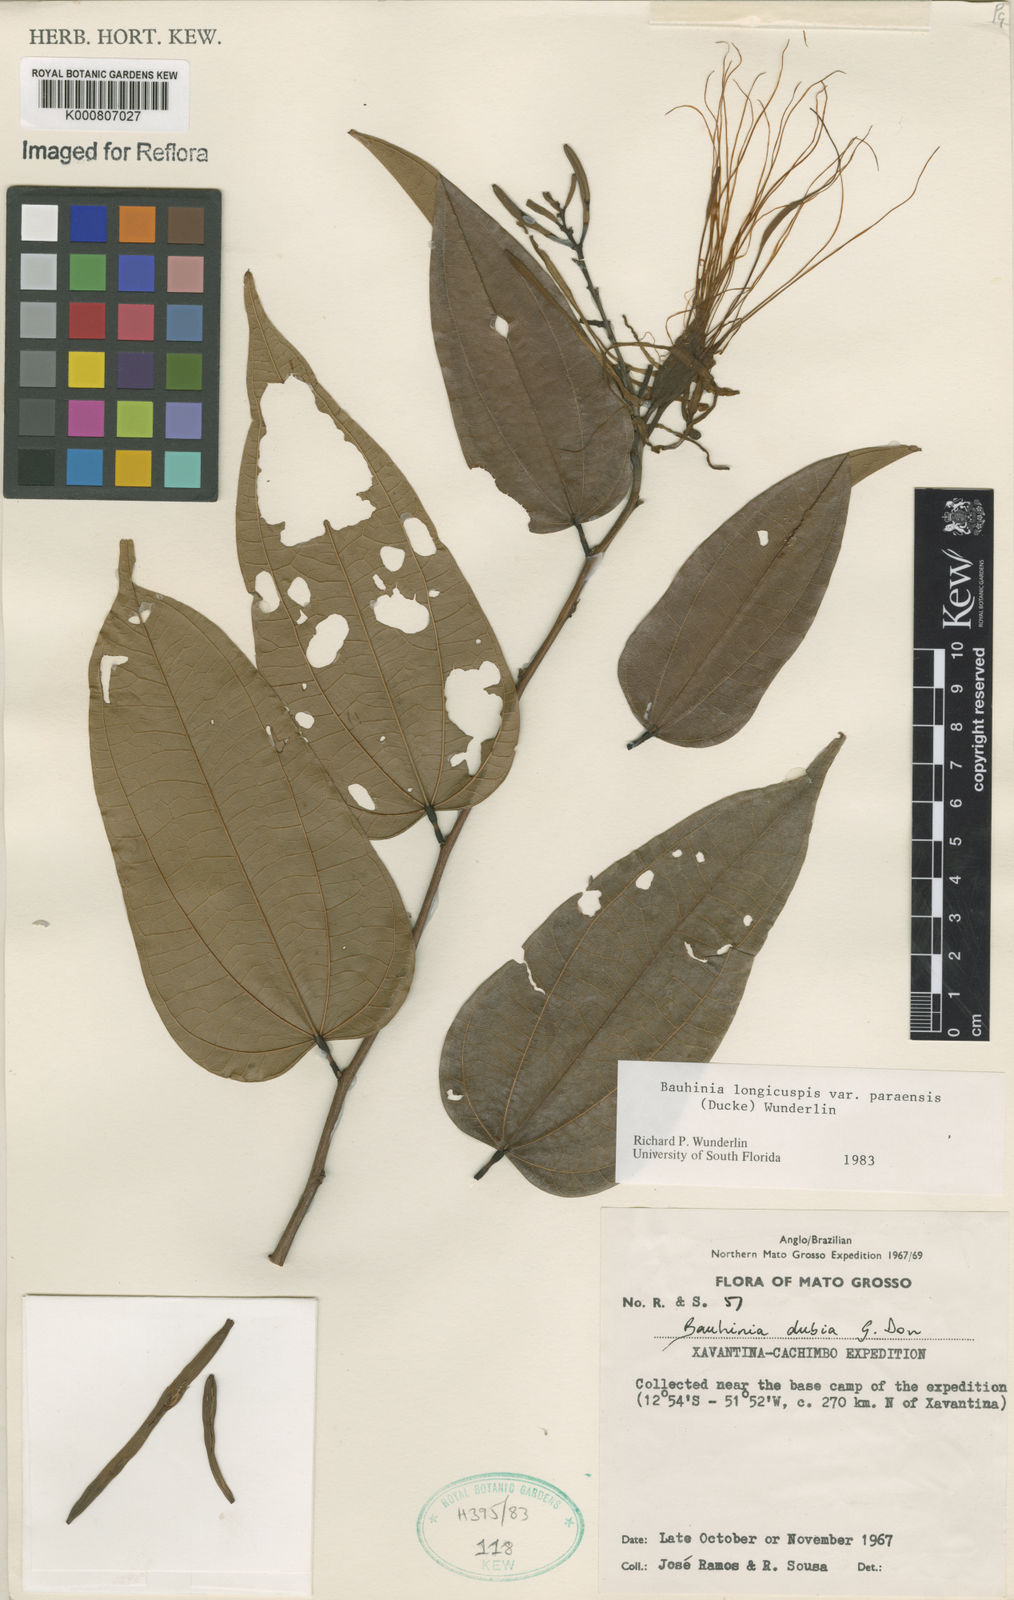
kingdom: Plantae
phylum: Tracheophyta
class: Magnoliopsida
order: Fabales
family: Fabaceae
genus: Bauhinia
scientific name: Bauhinia longicuspis
